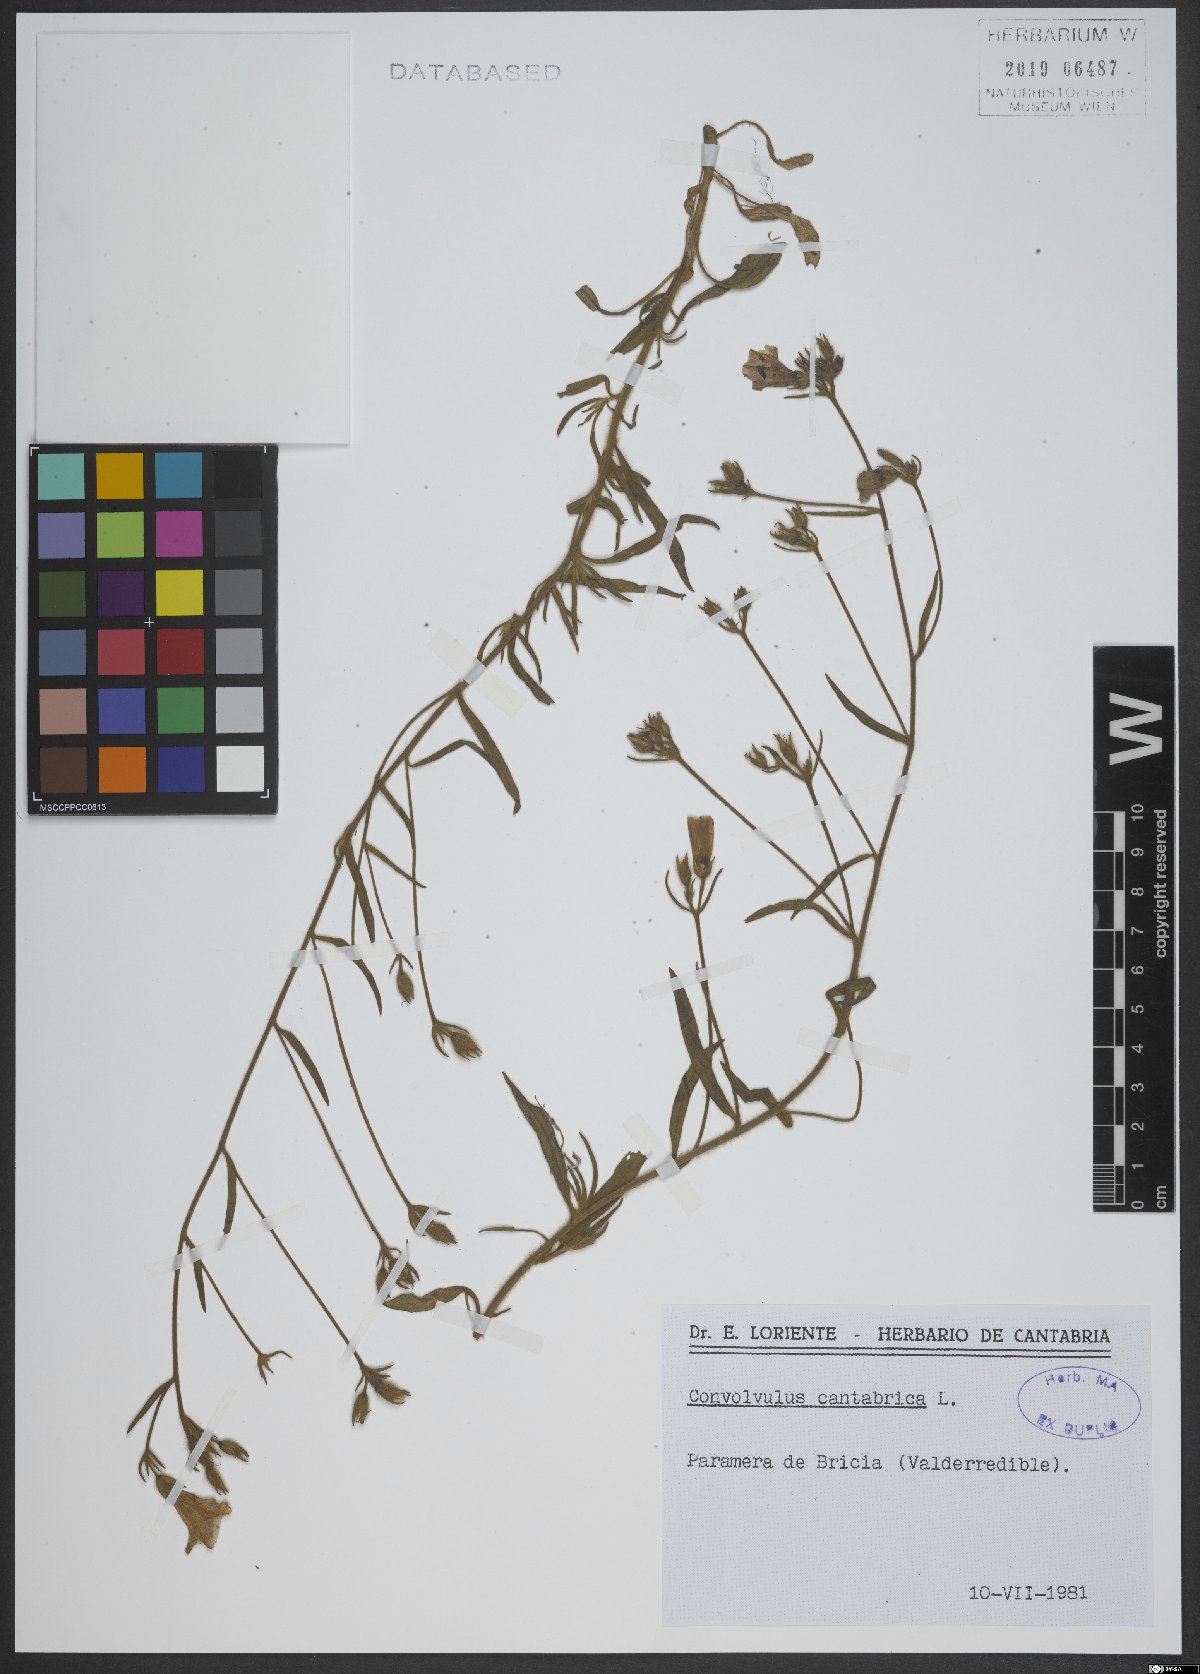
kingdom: Plantae
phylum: Tracheophyta
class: Magnoliopsida
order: Solanales
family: Convolvulaceae
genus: Convolvulus
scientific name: Convolvulus cantabrica
